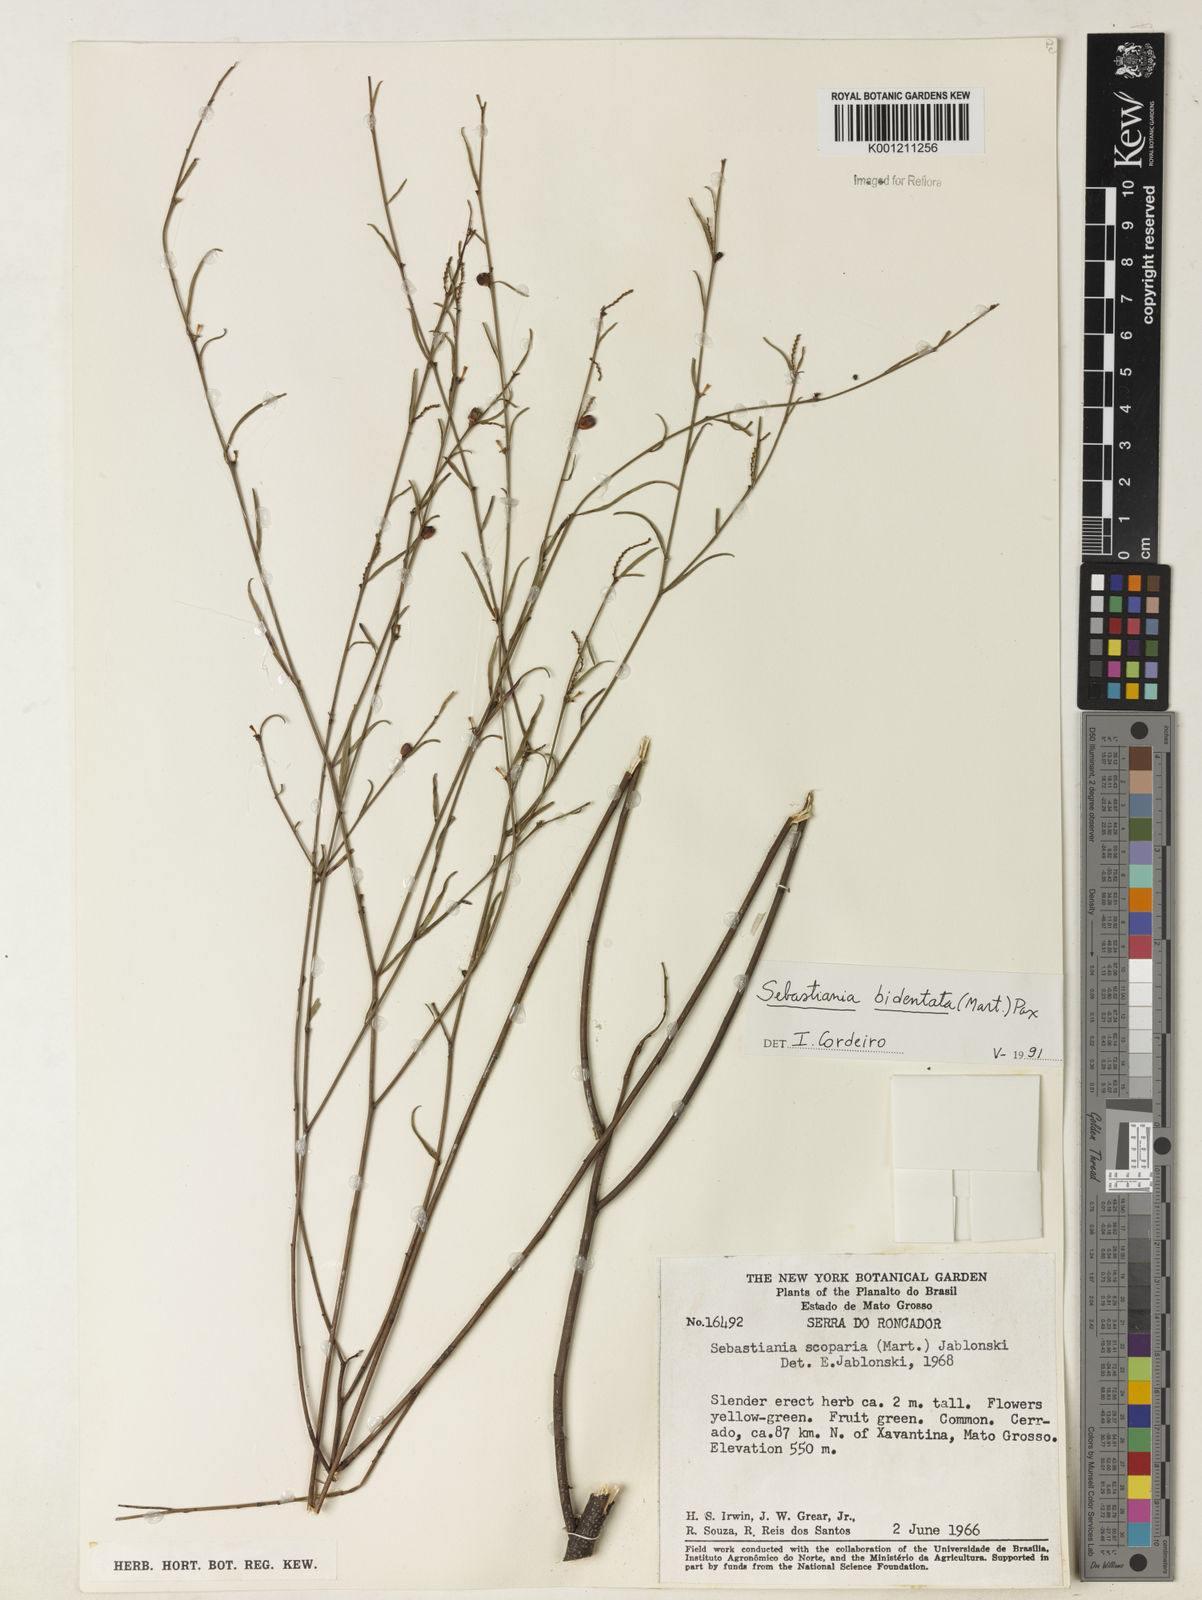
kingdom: Plantae
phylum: Tracheophyta
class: Magnoliopsida
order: Malpighiales
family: Euphorbiaceae
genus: Microstachys
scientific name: Microstachys bidentata
